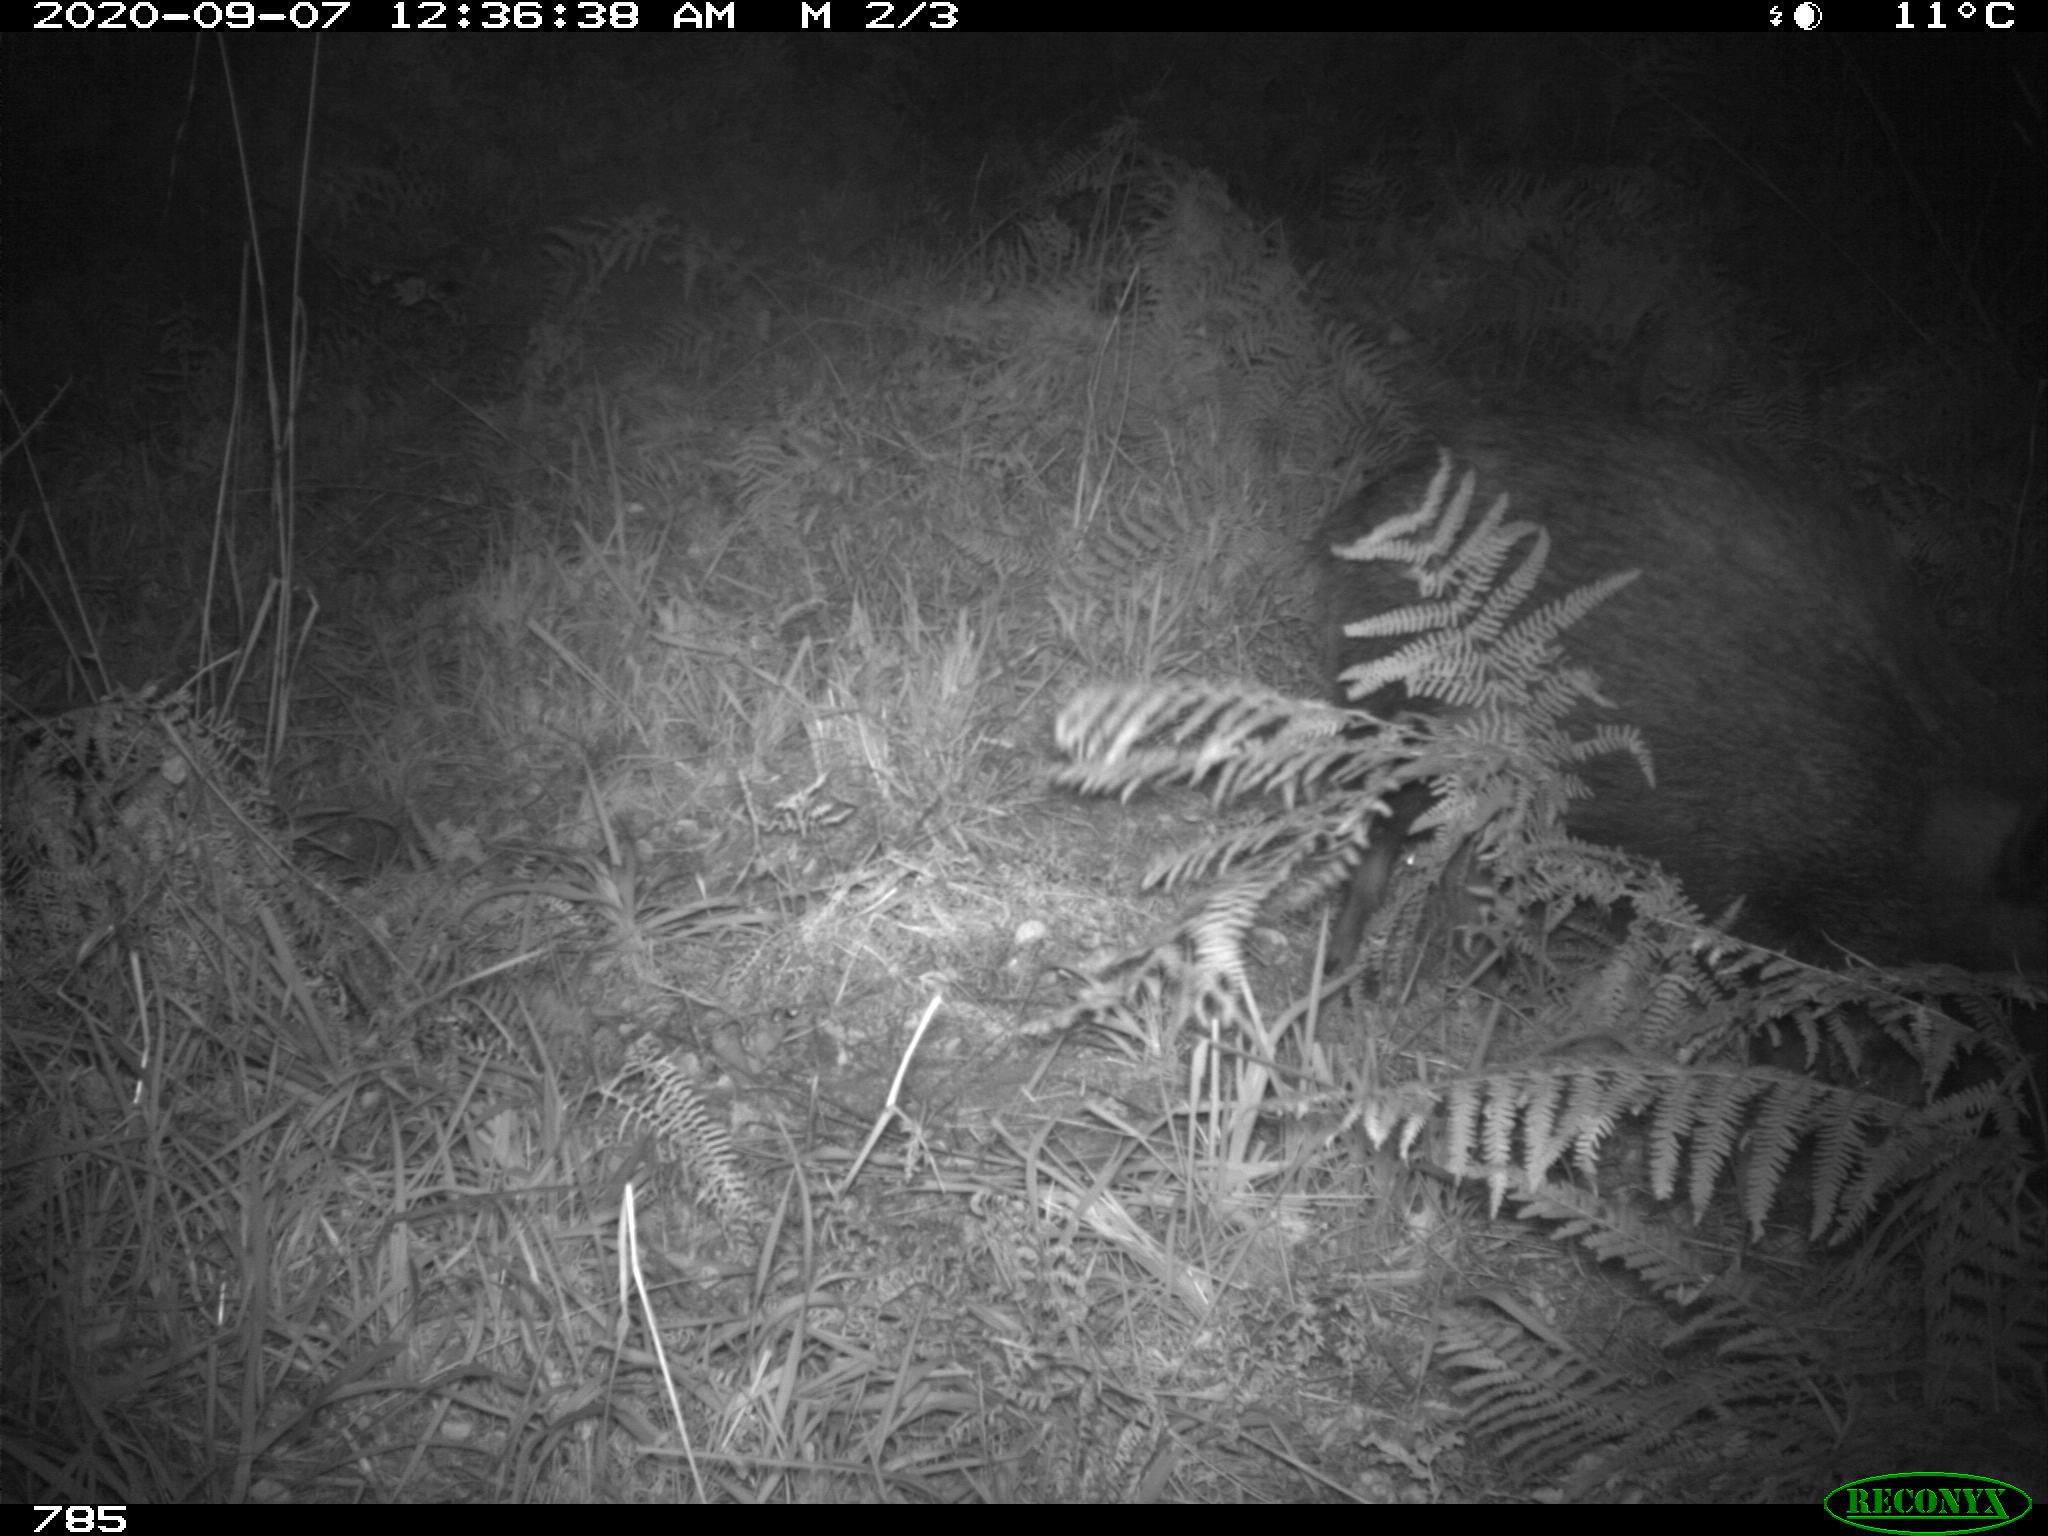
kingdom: Animalia
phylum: Chordata
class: Mammalia
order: Artiodactyla
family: Suidae
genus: Sus
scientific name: Sus scrofa
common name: Wild boar
